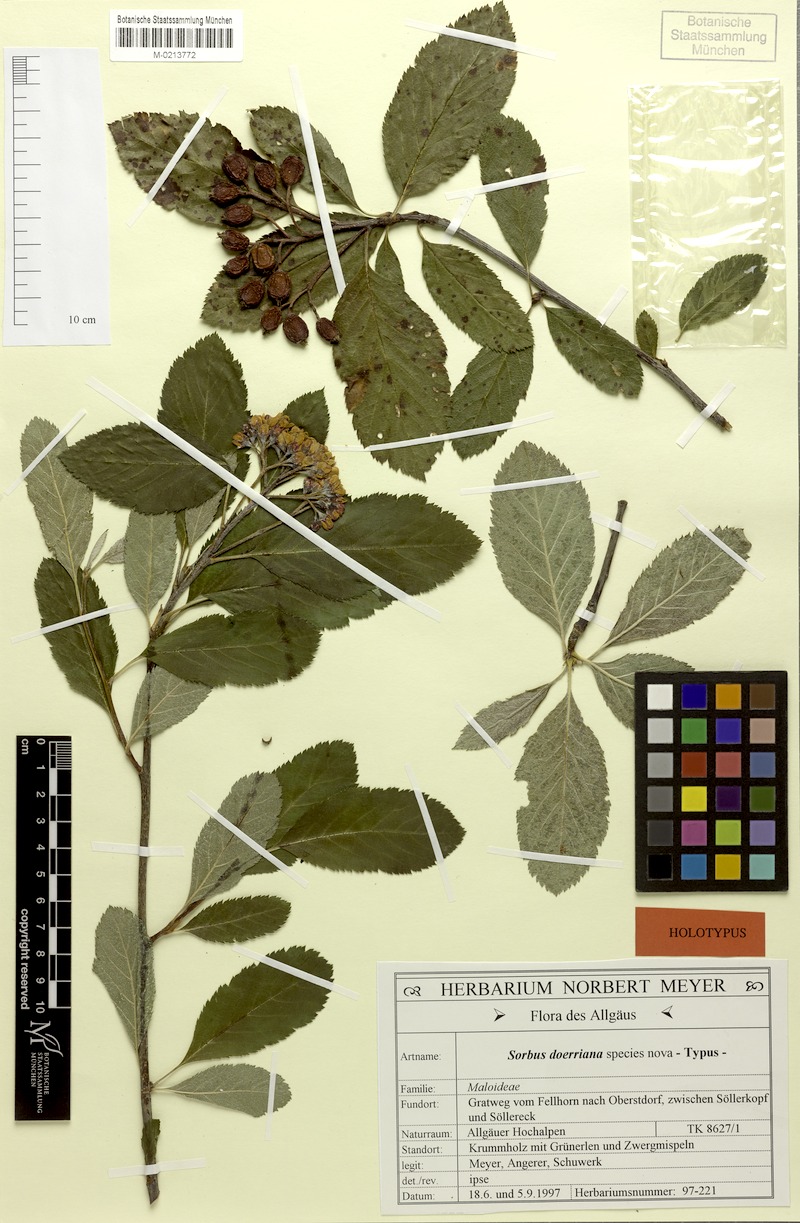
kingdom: Plantae
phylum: Tracheophyta
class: Magnoliopsida
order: Rosales
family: Rosaceae
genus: Normeyera
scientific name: Normeyera doerriana
